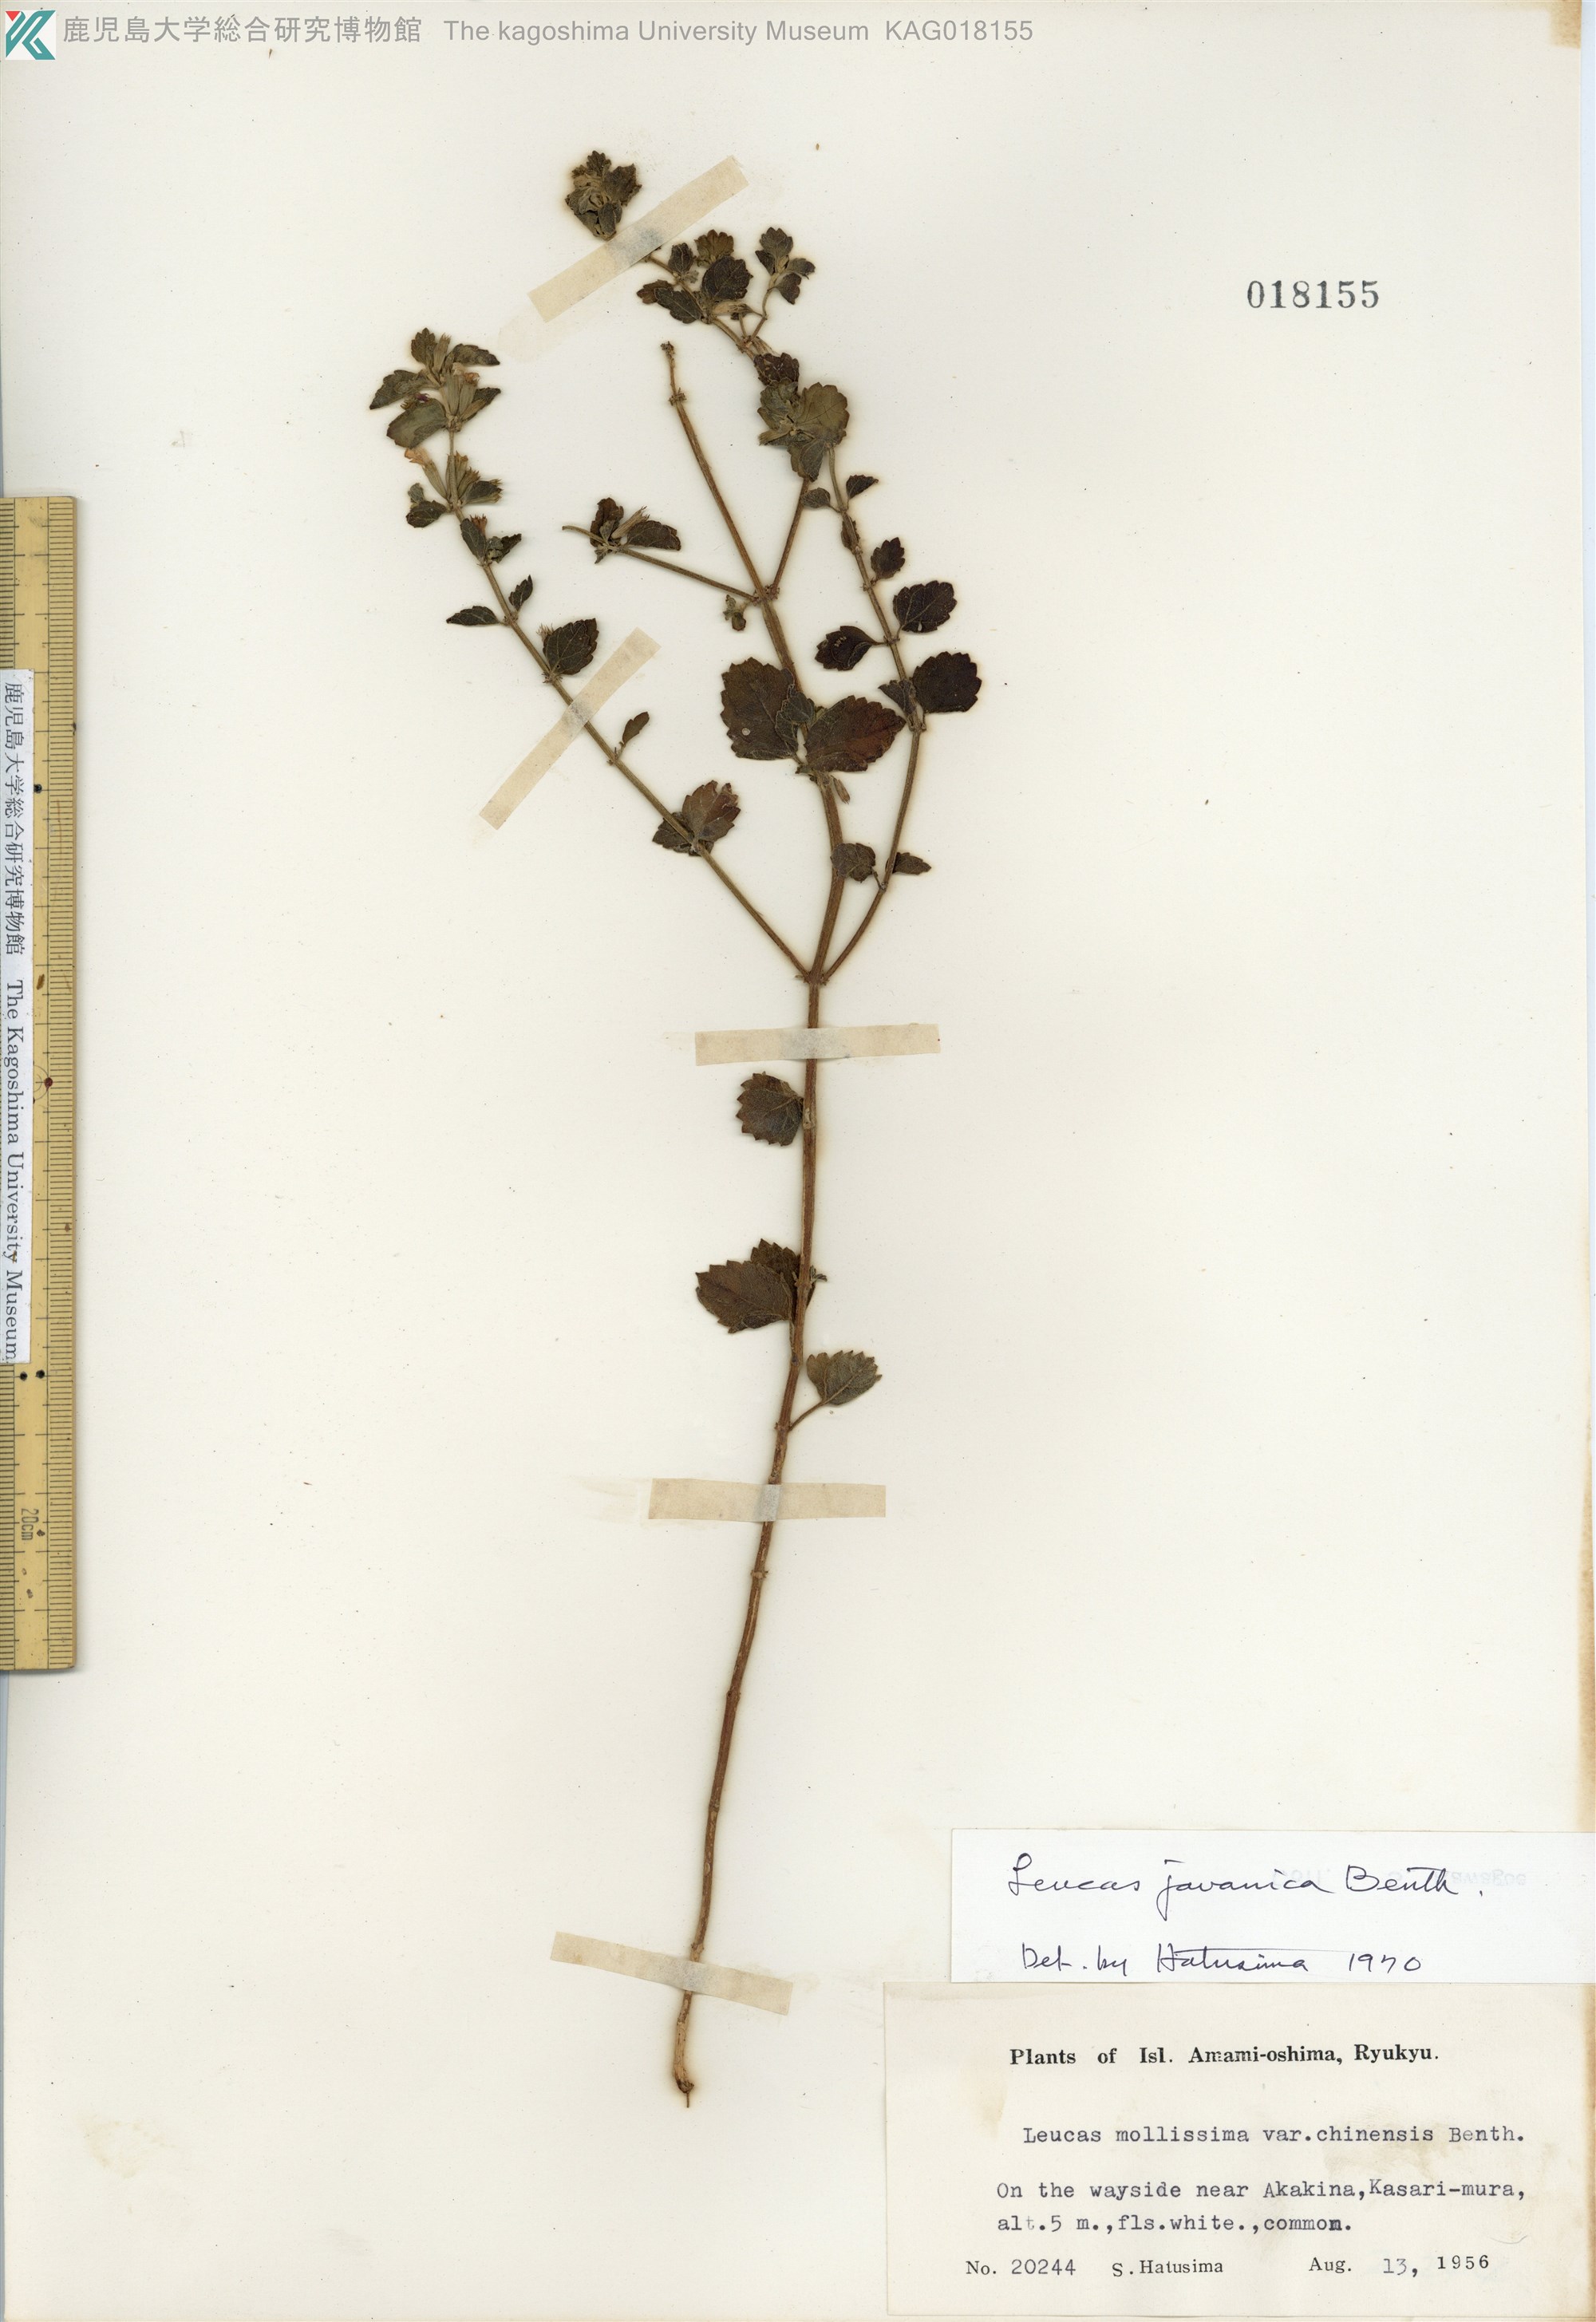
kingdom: Plantae
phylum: Tracheophyta
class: Magnoliopsida
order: Lamiales
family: Lamiaceae
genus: Leucas
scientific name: Leucas chinensis
